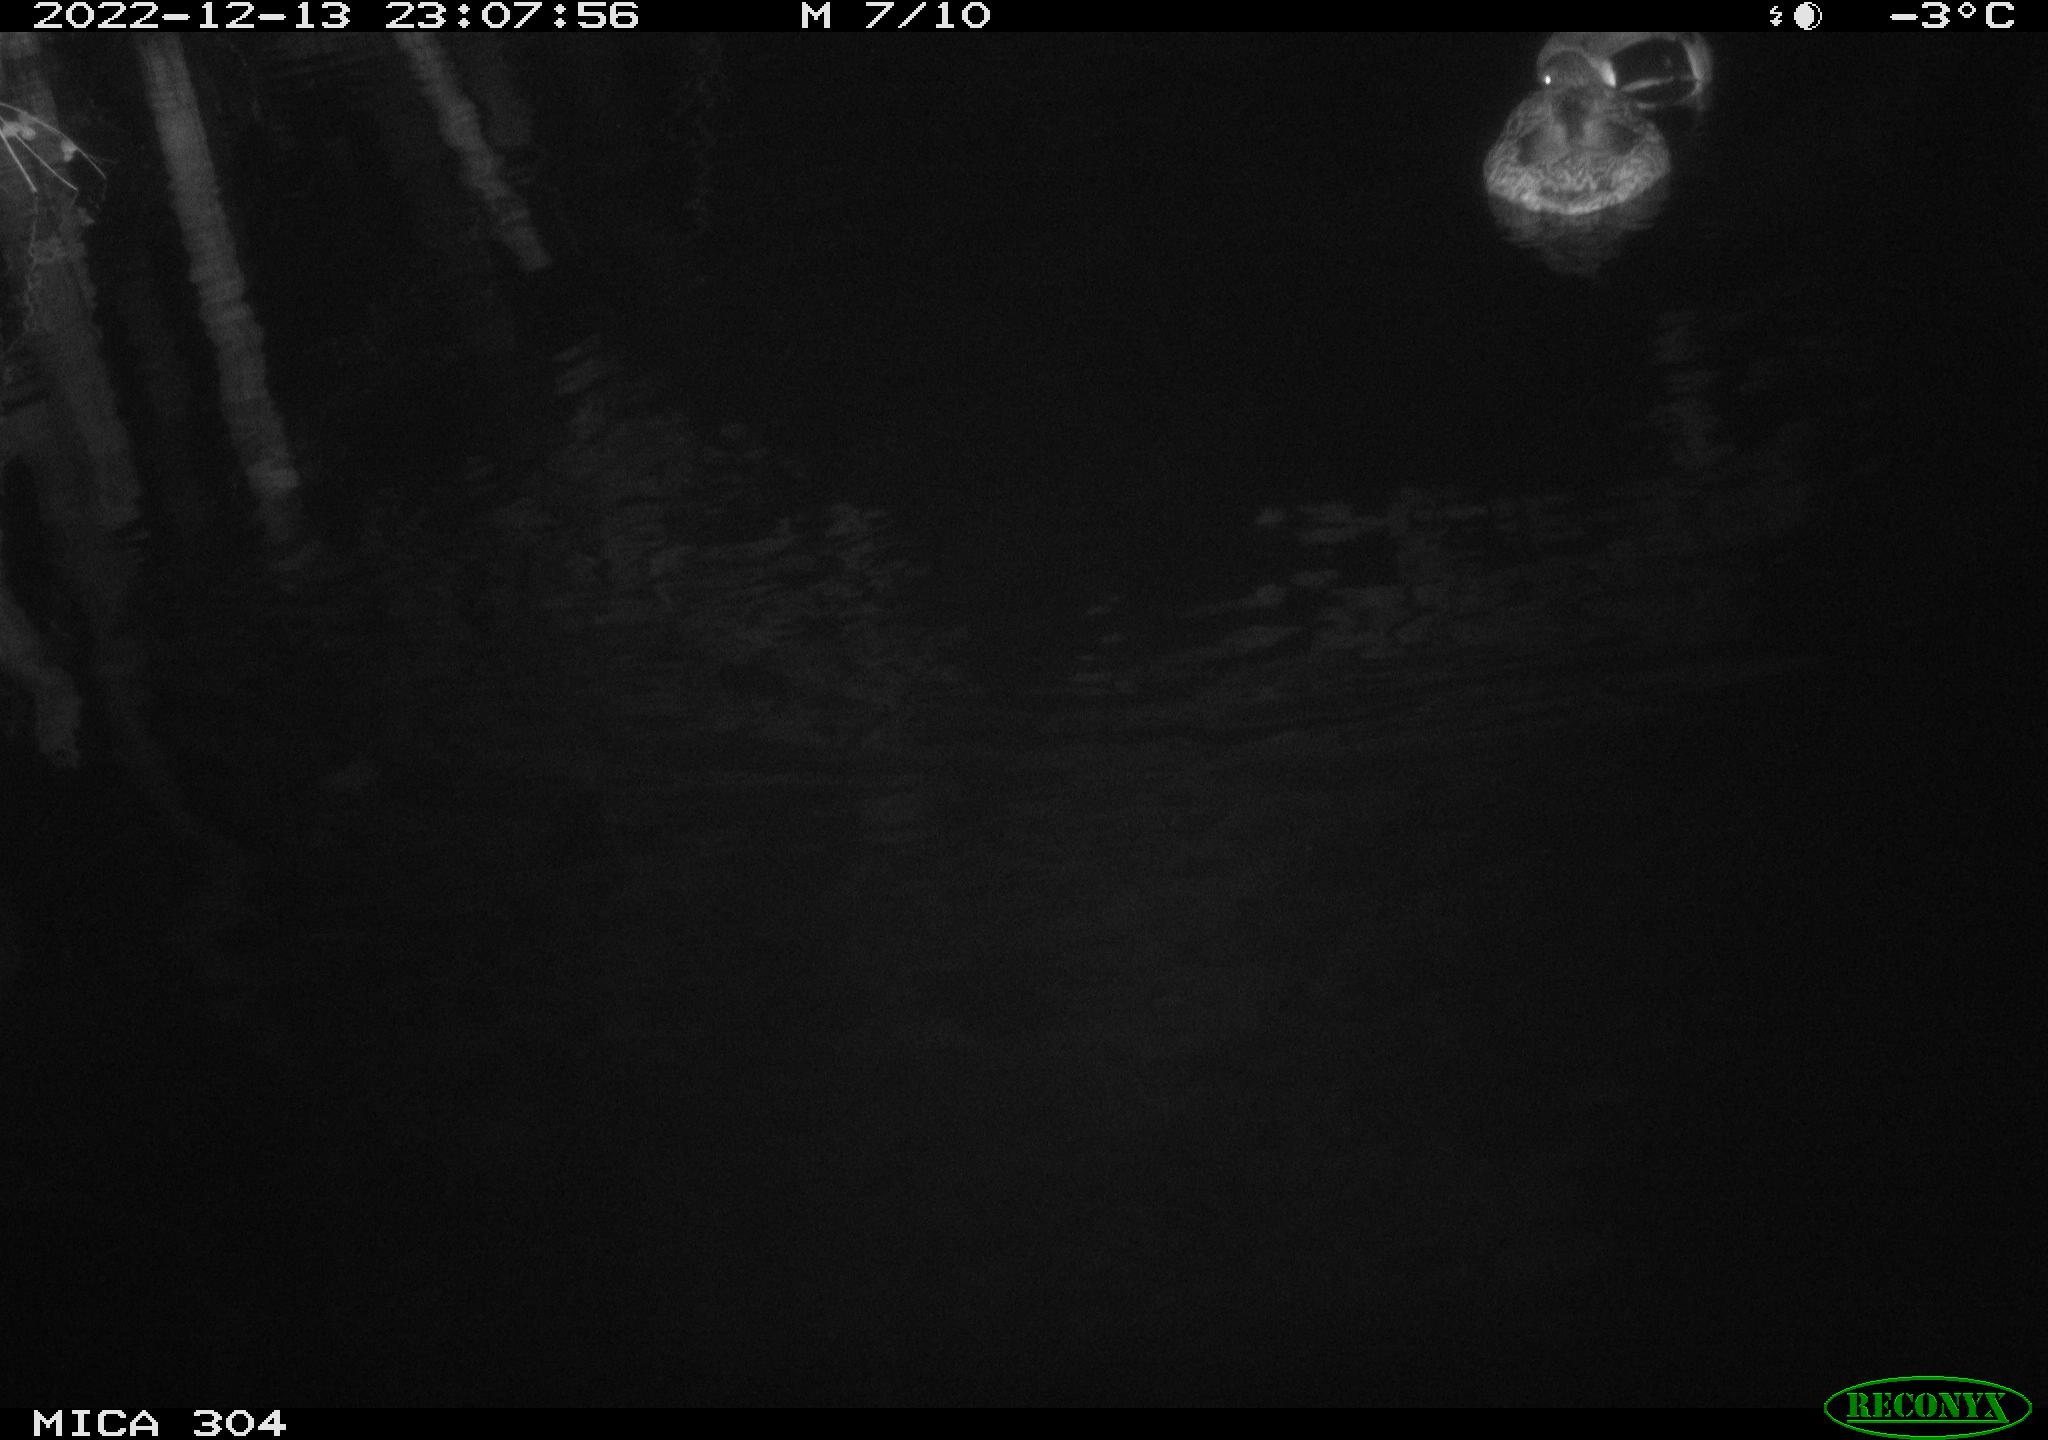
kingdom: Animalia
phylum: Chordata
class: Aves
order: Anseriformes
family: Anatidae
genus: Anas
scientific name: Anas
